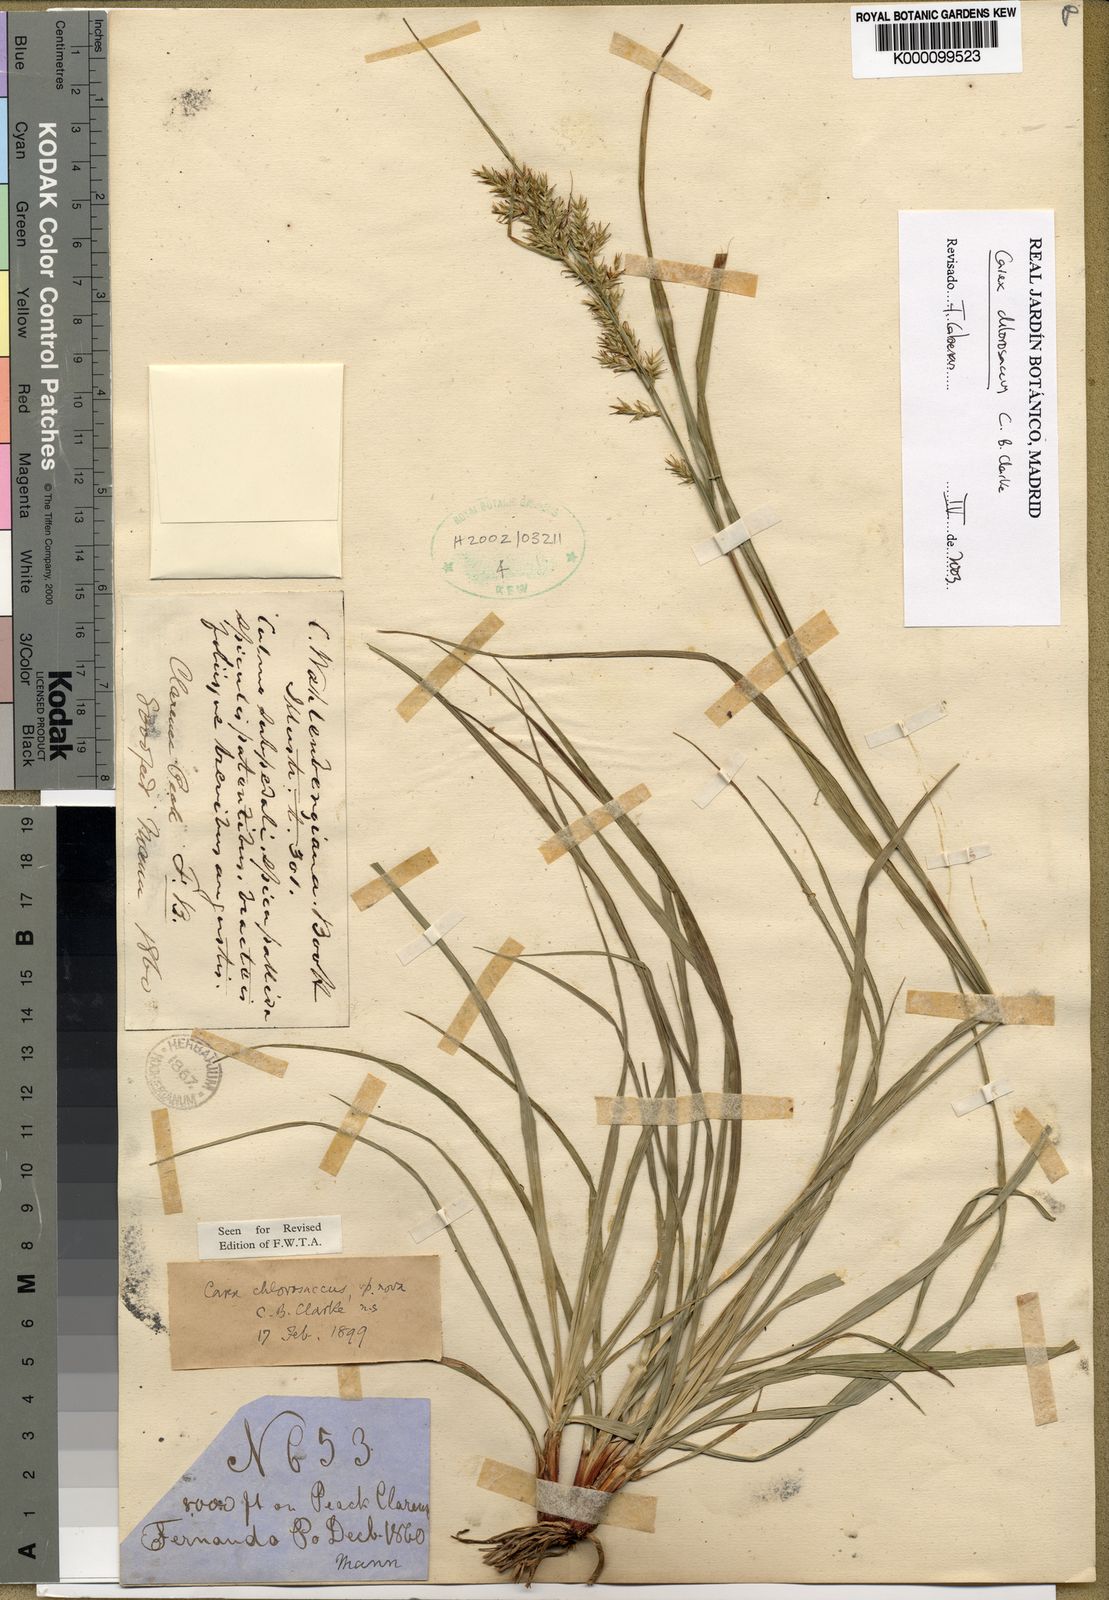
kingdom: Plantae
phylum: Tracheophyta
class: Liliopsida
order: Poales
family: Cyperaceae
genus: Carex
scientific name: Carex echinochloe
